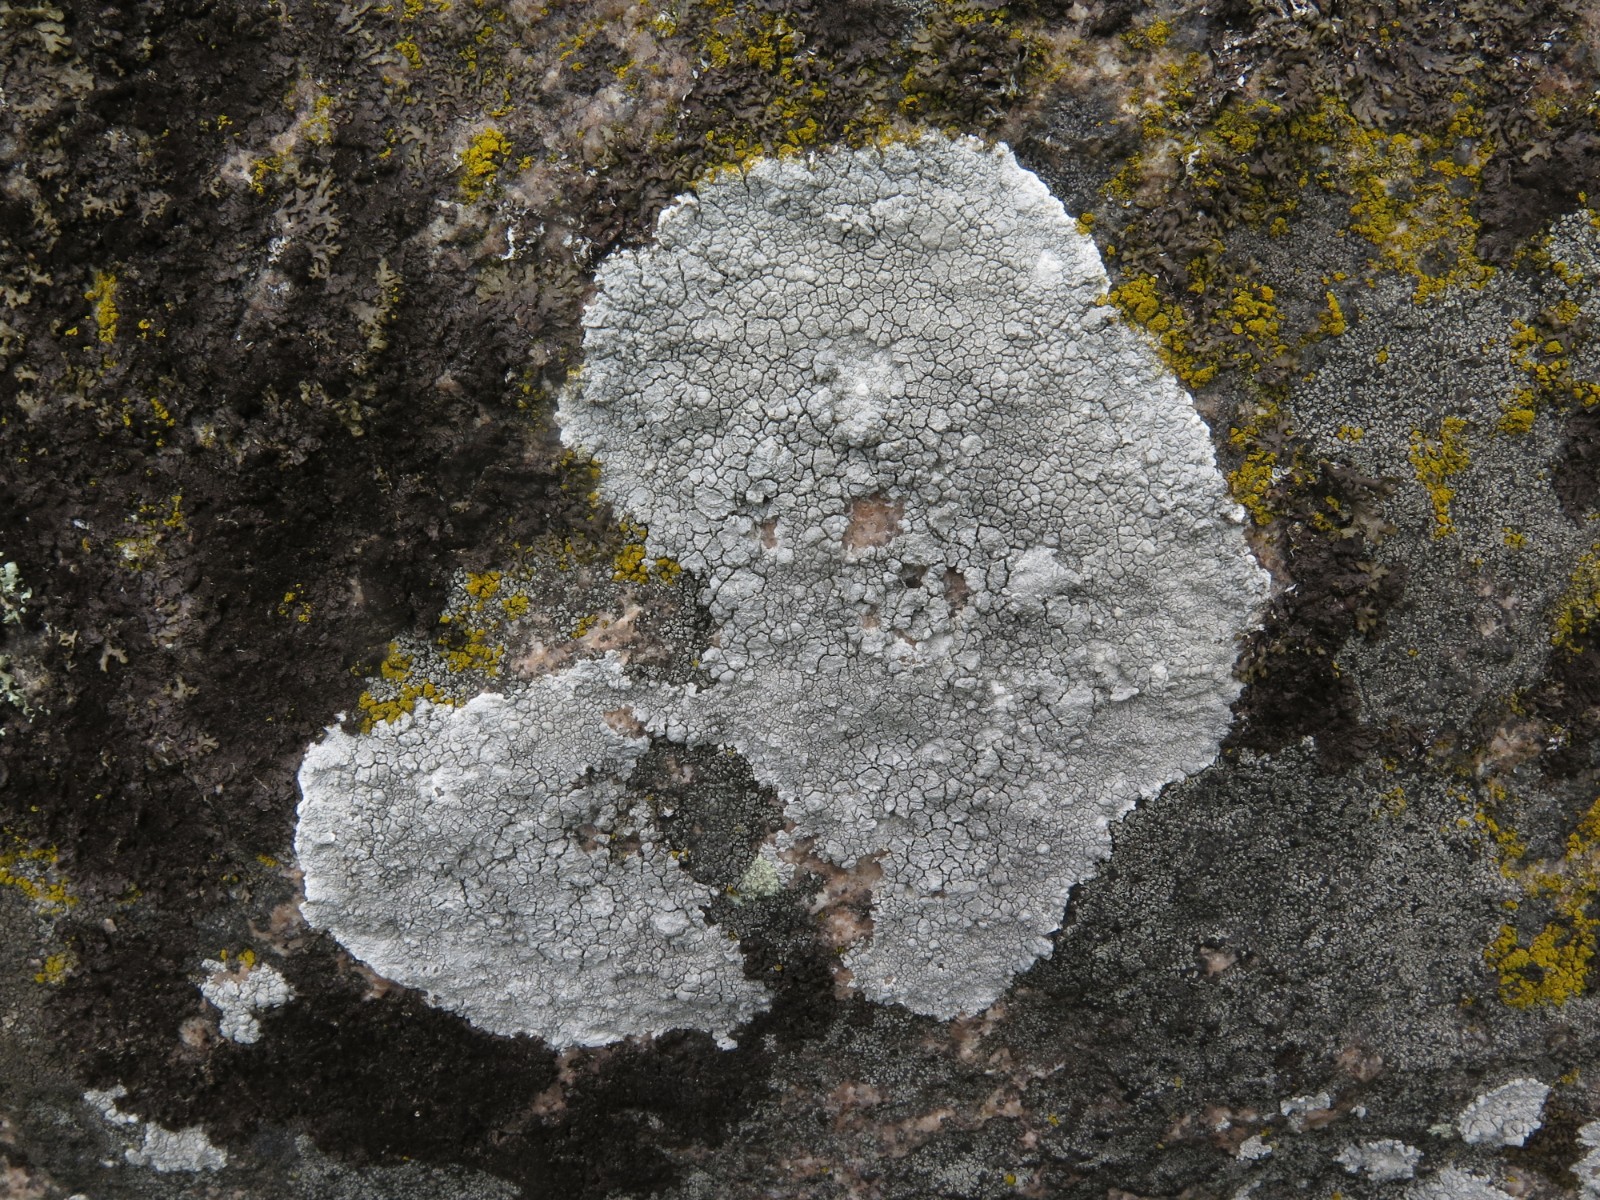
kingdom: Fungi
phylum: Ascomycota
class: Lecanoromycetes
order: Lecanorales
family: Lecanoraceae
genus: Glaucomaria
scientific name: Glaucomaria rupicola
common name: stengærde-kantskivelav
